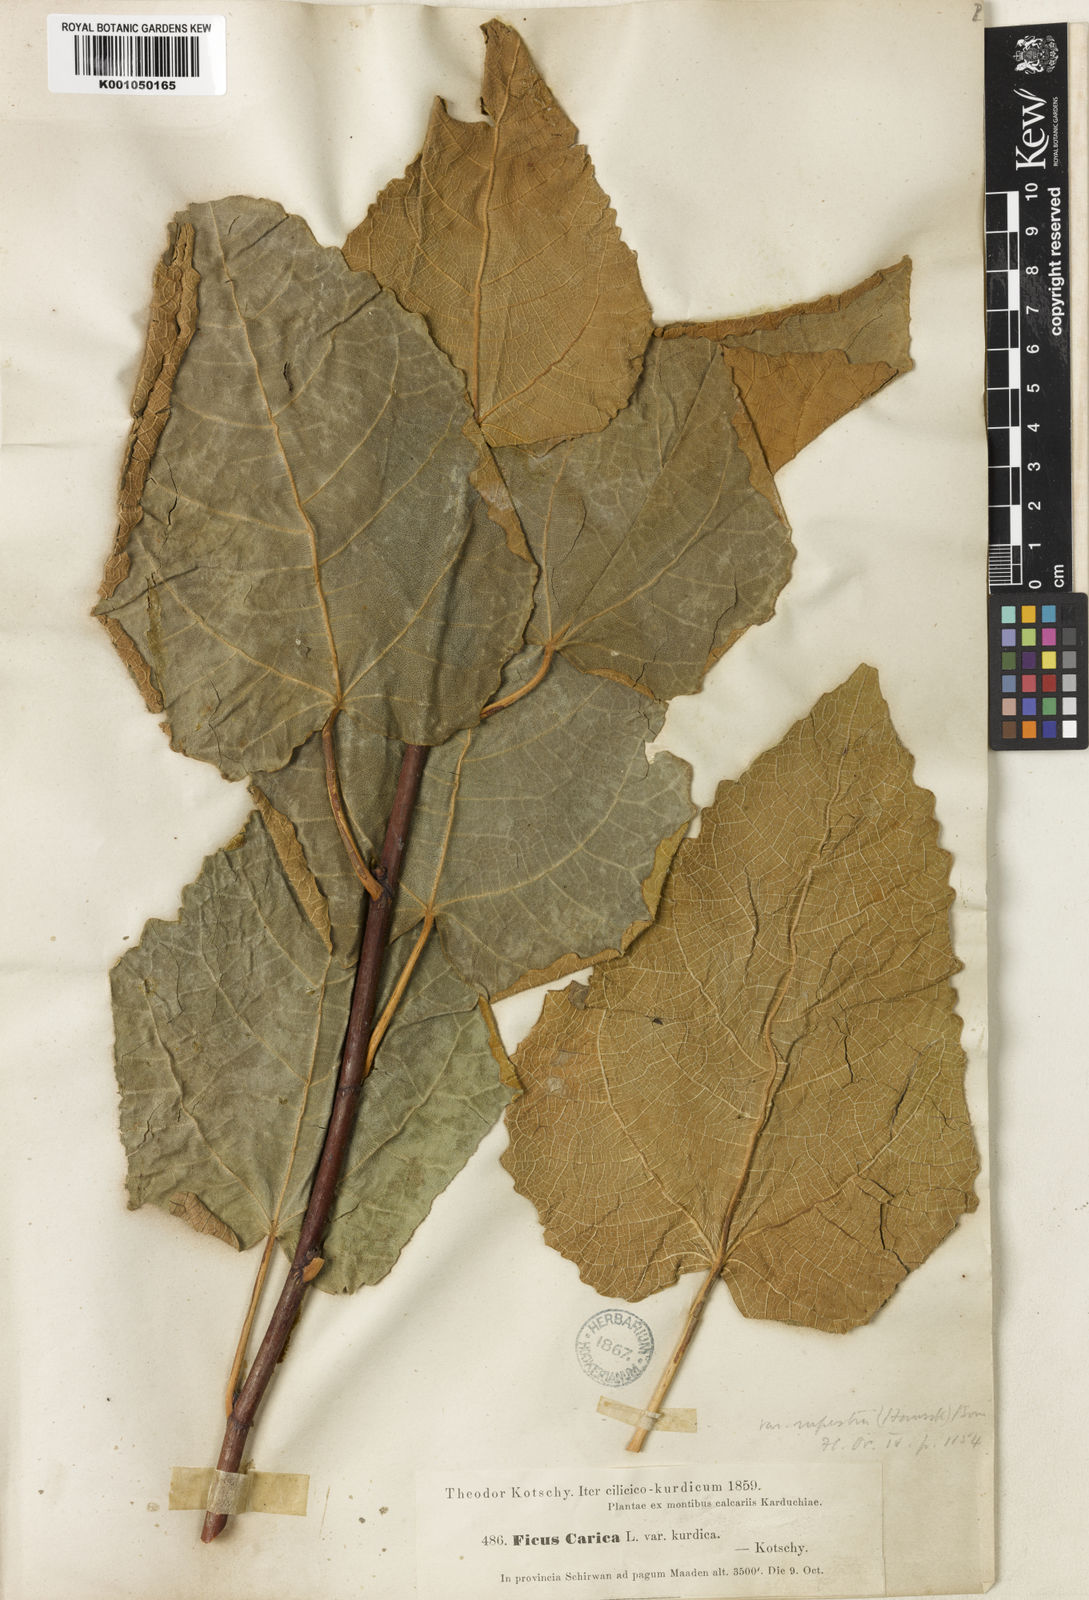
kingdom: Plantae
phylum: Tracheophyta
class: Magnoliopsida
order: Rosales
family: Moraceae
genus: Ficus
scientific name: Ficus carica
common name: Fig
